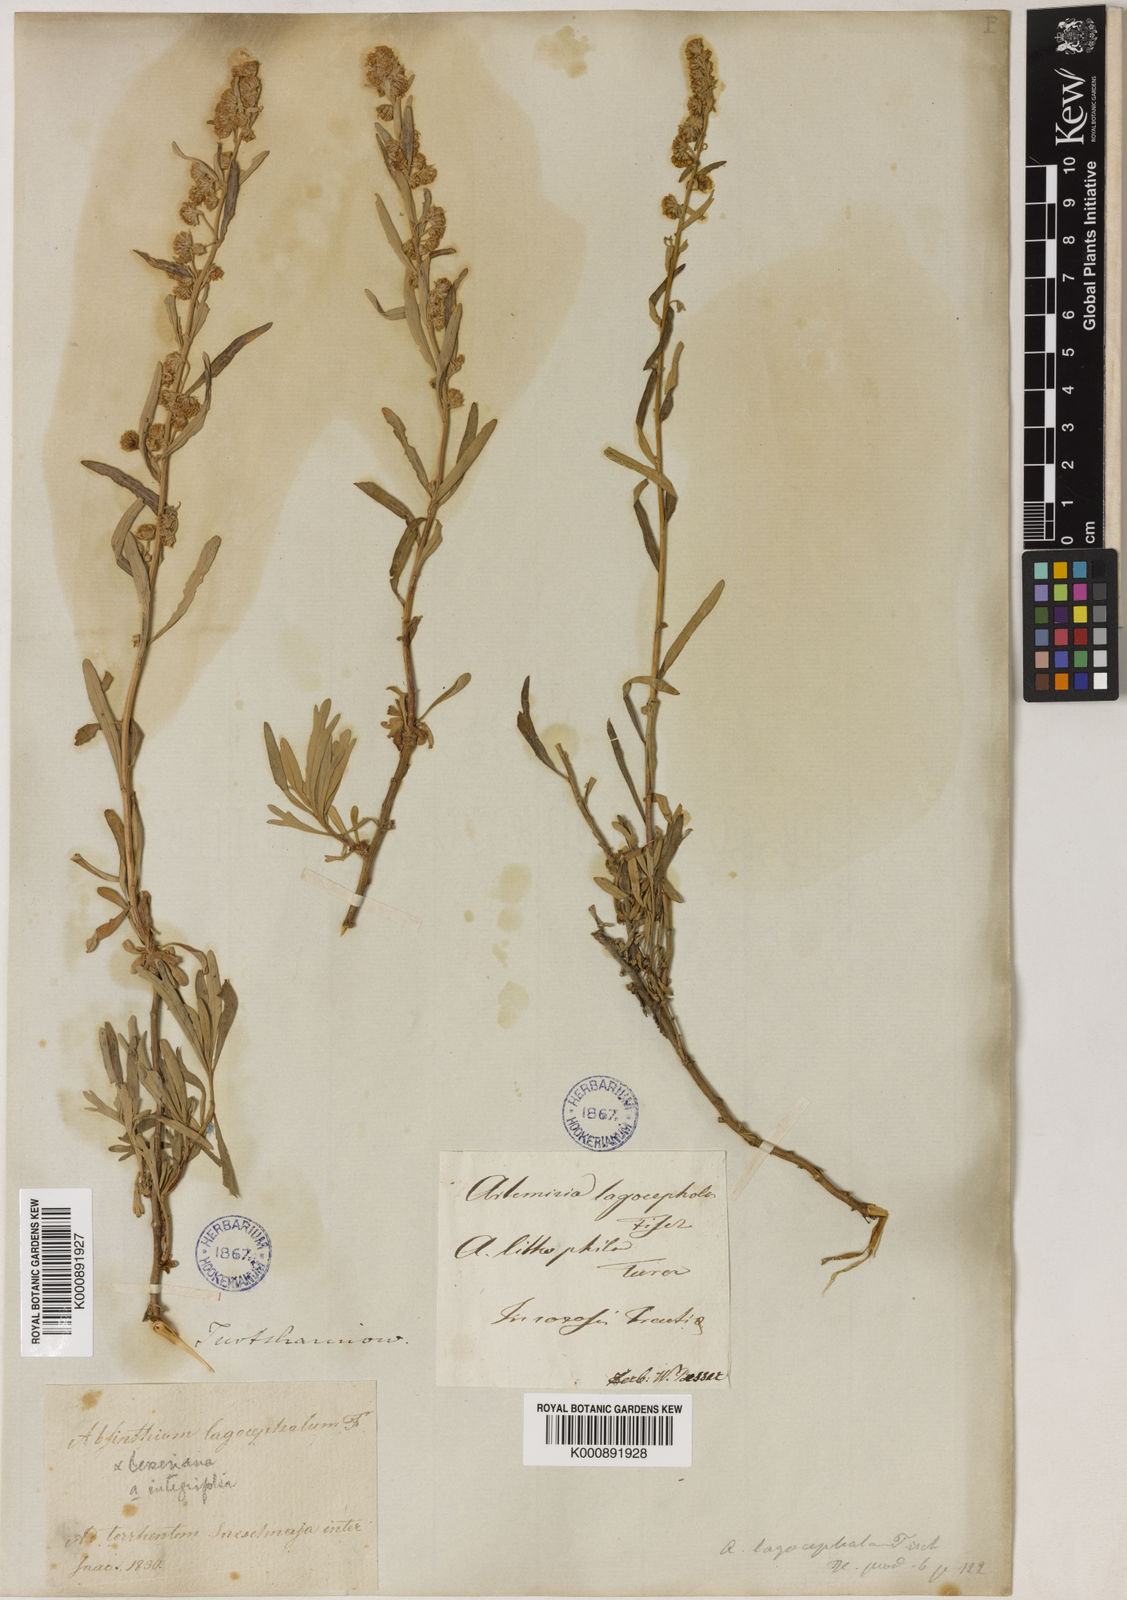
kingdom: Plantae
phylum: Tracheophyta
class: Magnoliopsida
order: Asterales
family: Asteraceae
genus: Artemisia
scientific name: Artemisia lagocephala
